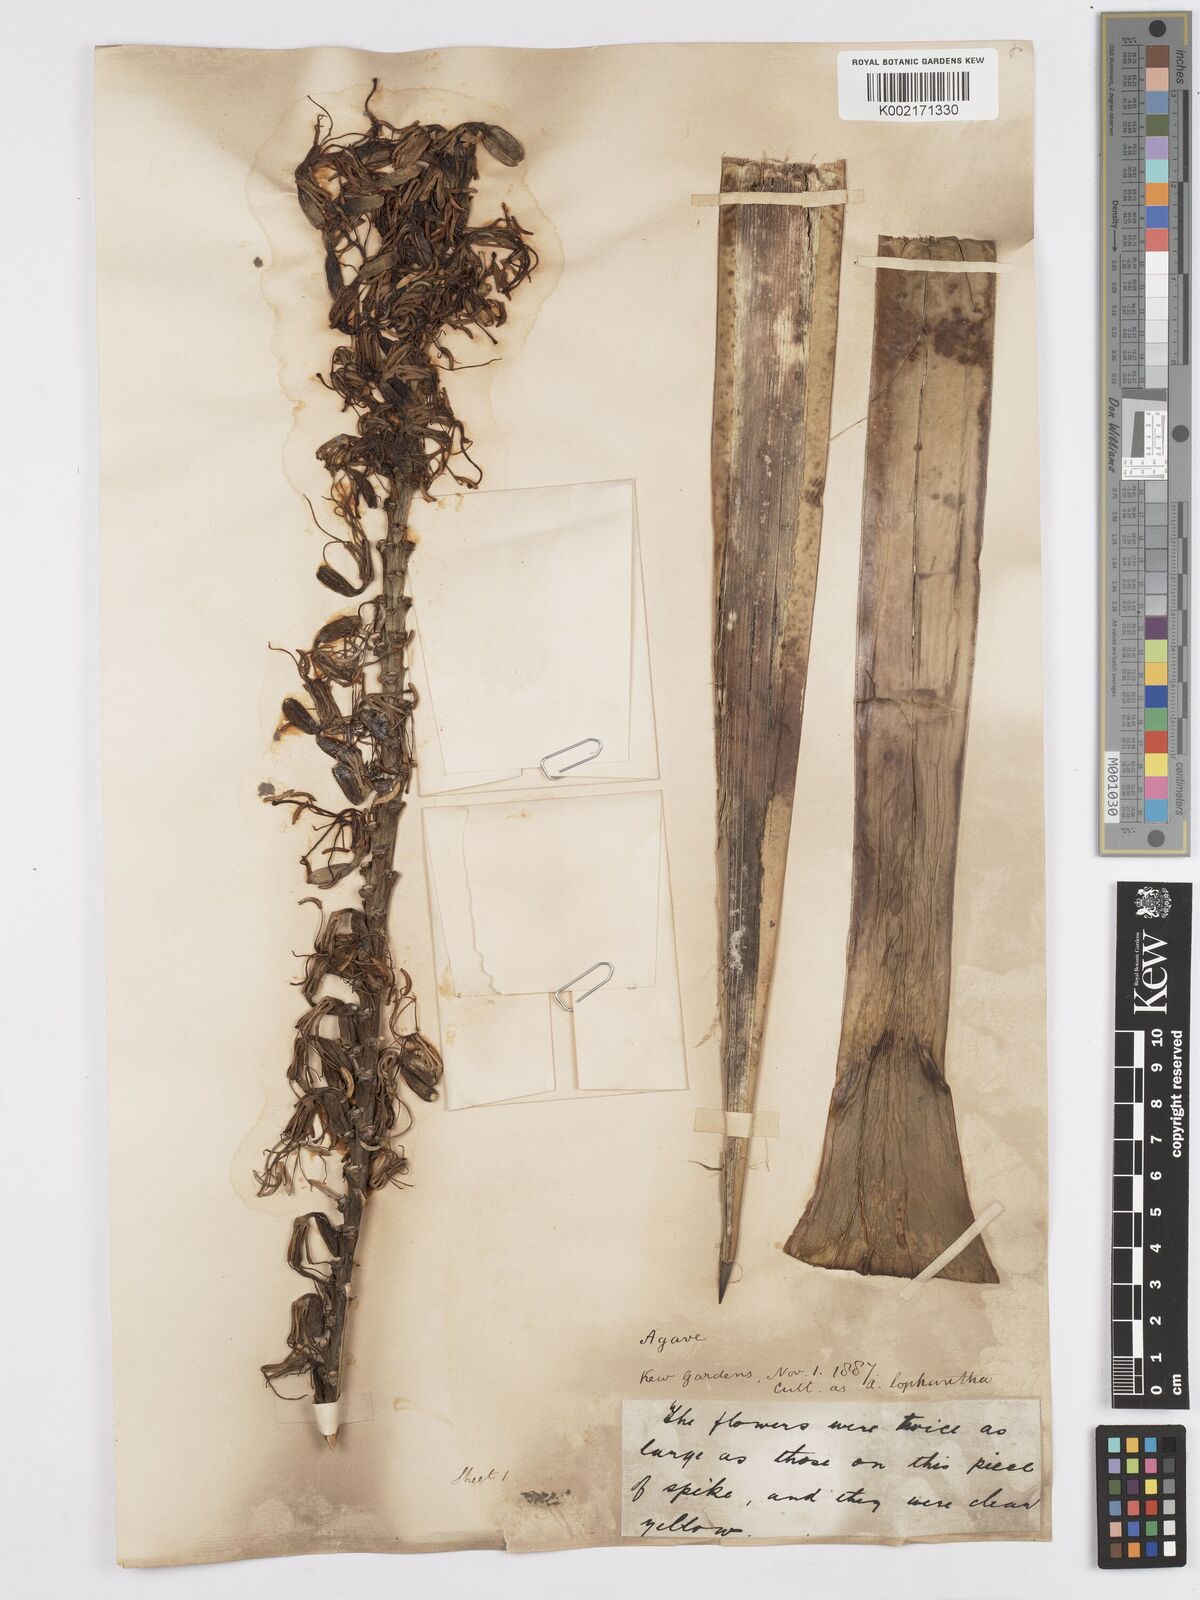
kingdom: Plantae
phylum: Tracheophyta
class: Liliopsida
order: Asparagales
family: Asparagaceae
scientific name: Asparagaceae
